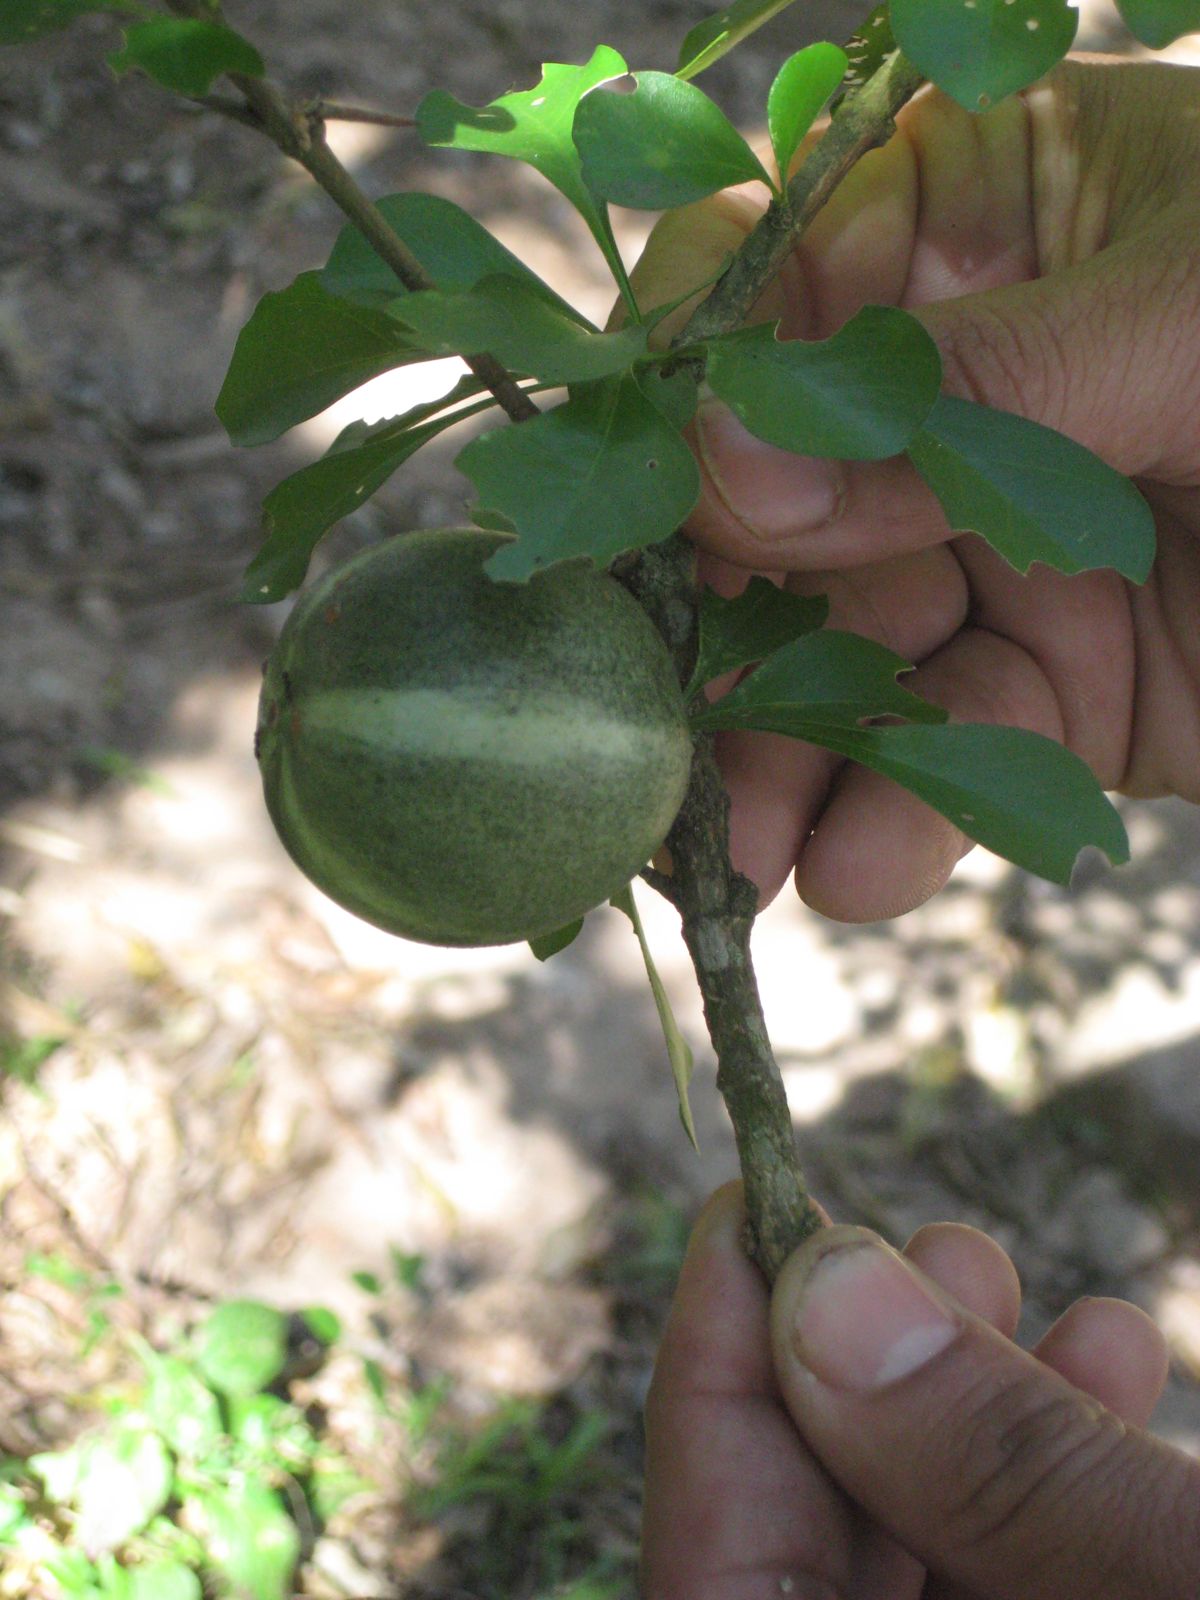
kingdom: Plantae
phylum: Tracheophyta
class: Magnoliopsida
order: Gentianales
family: Rubiaceae
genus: Randia
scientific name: Randia thurberi
